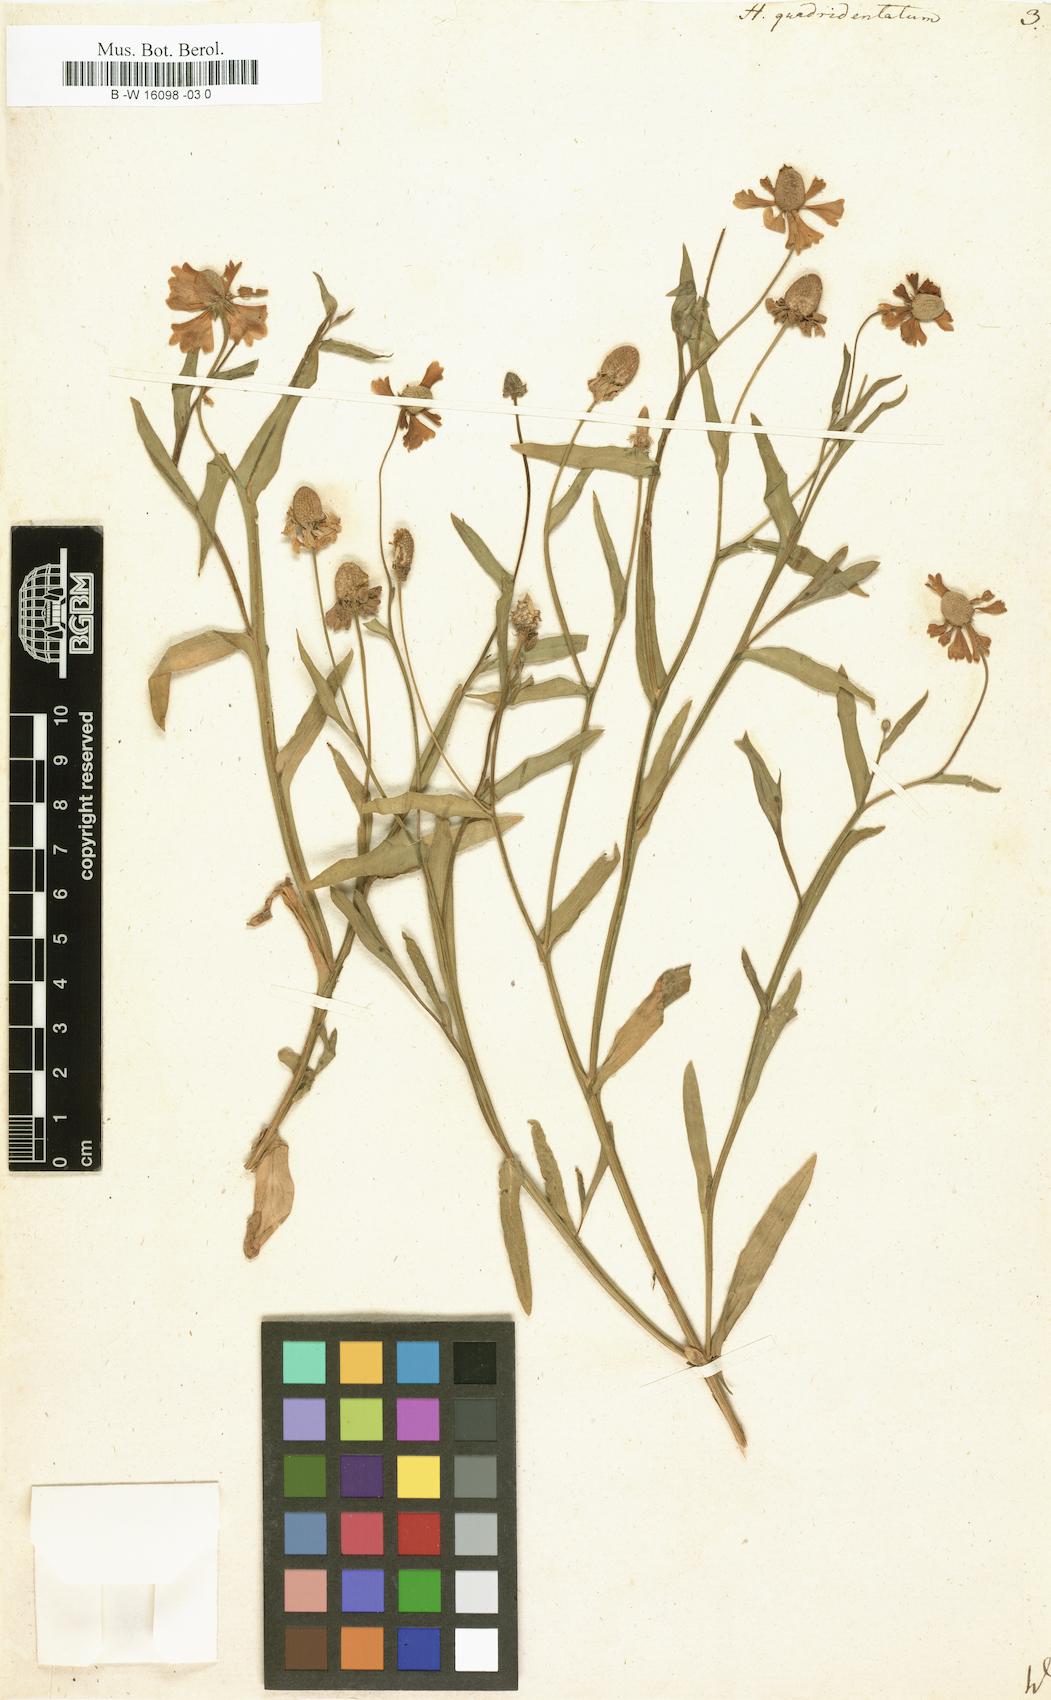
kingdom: Plantae
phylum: Tracheophyta
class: Magnoliopsida
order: Asterales
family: Asteraceae
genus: Helenium
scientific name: Helenium quadridentatum
